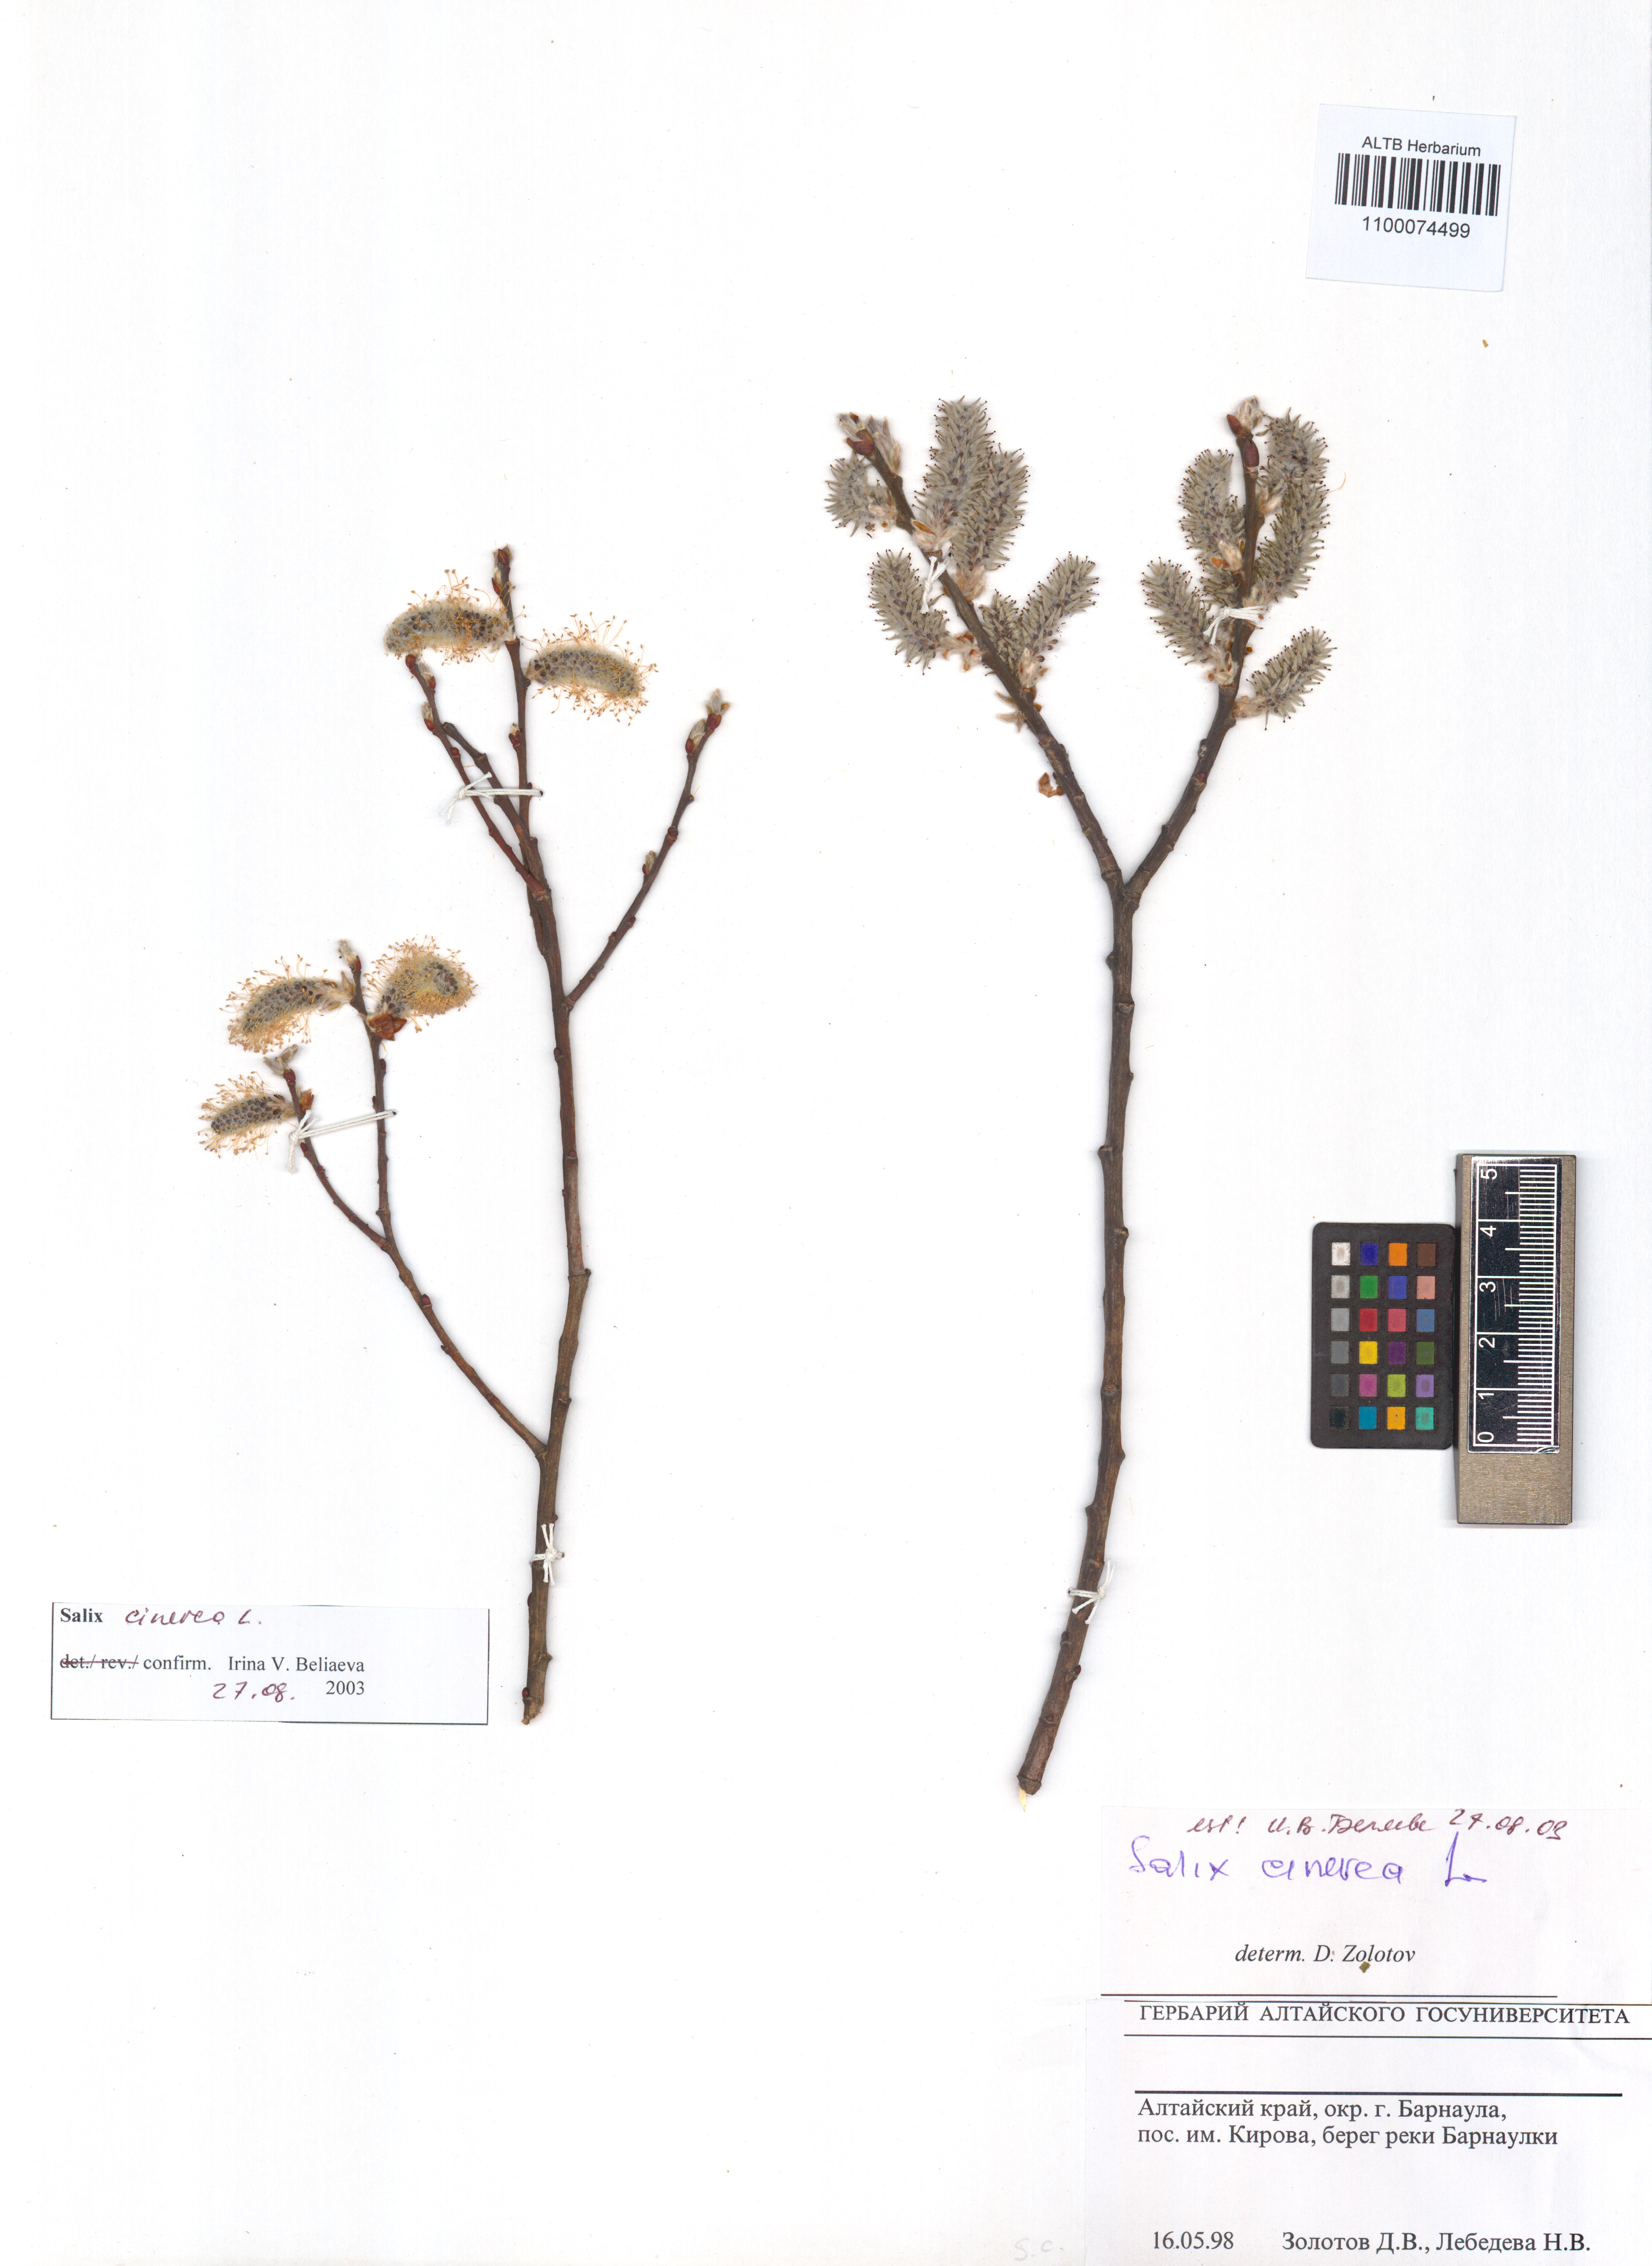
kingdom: Plantae
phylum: Tracheophyta
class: Magnoliopsida
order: Malpighiales
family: Salicaceae
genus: Salix
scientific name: Salix cinerea
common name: Common sallow
